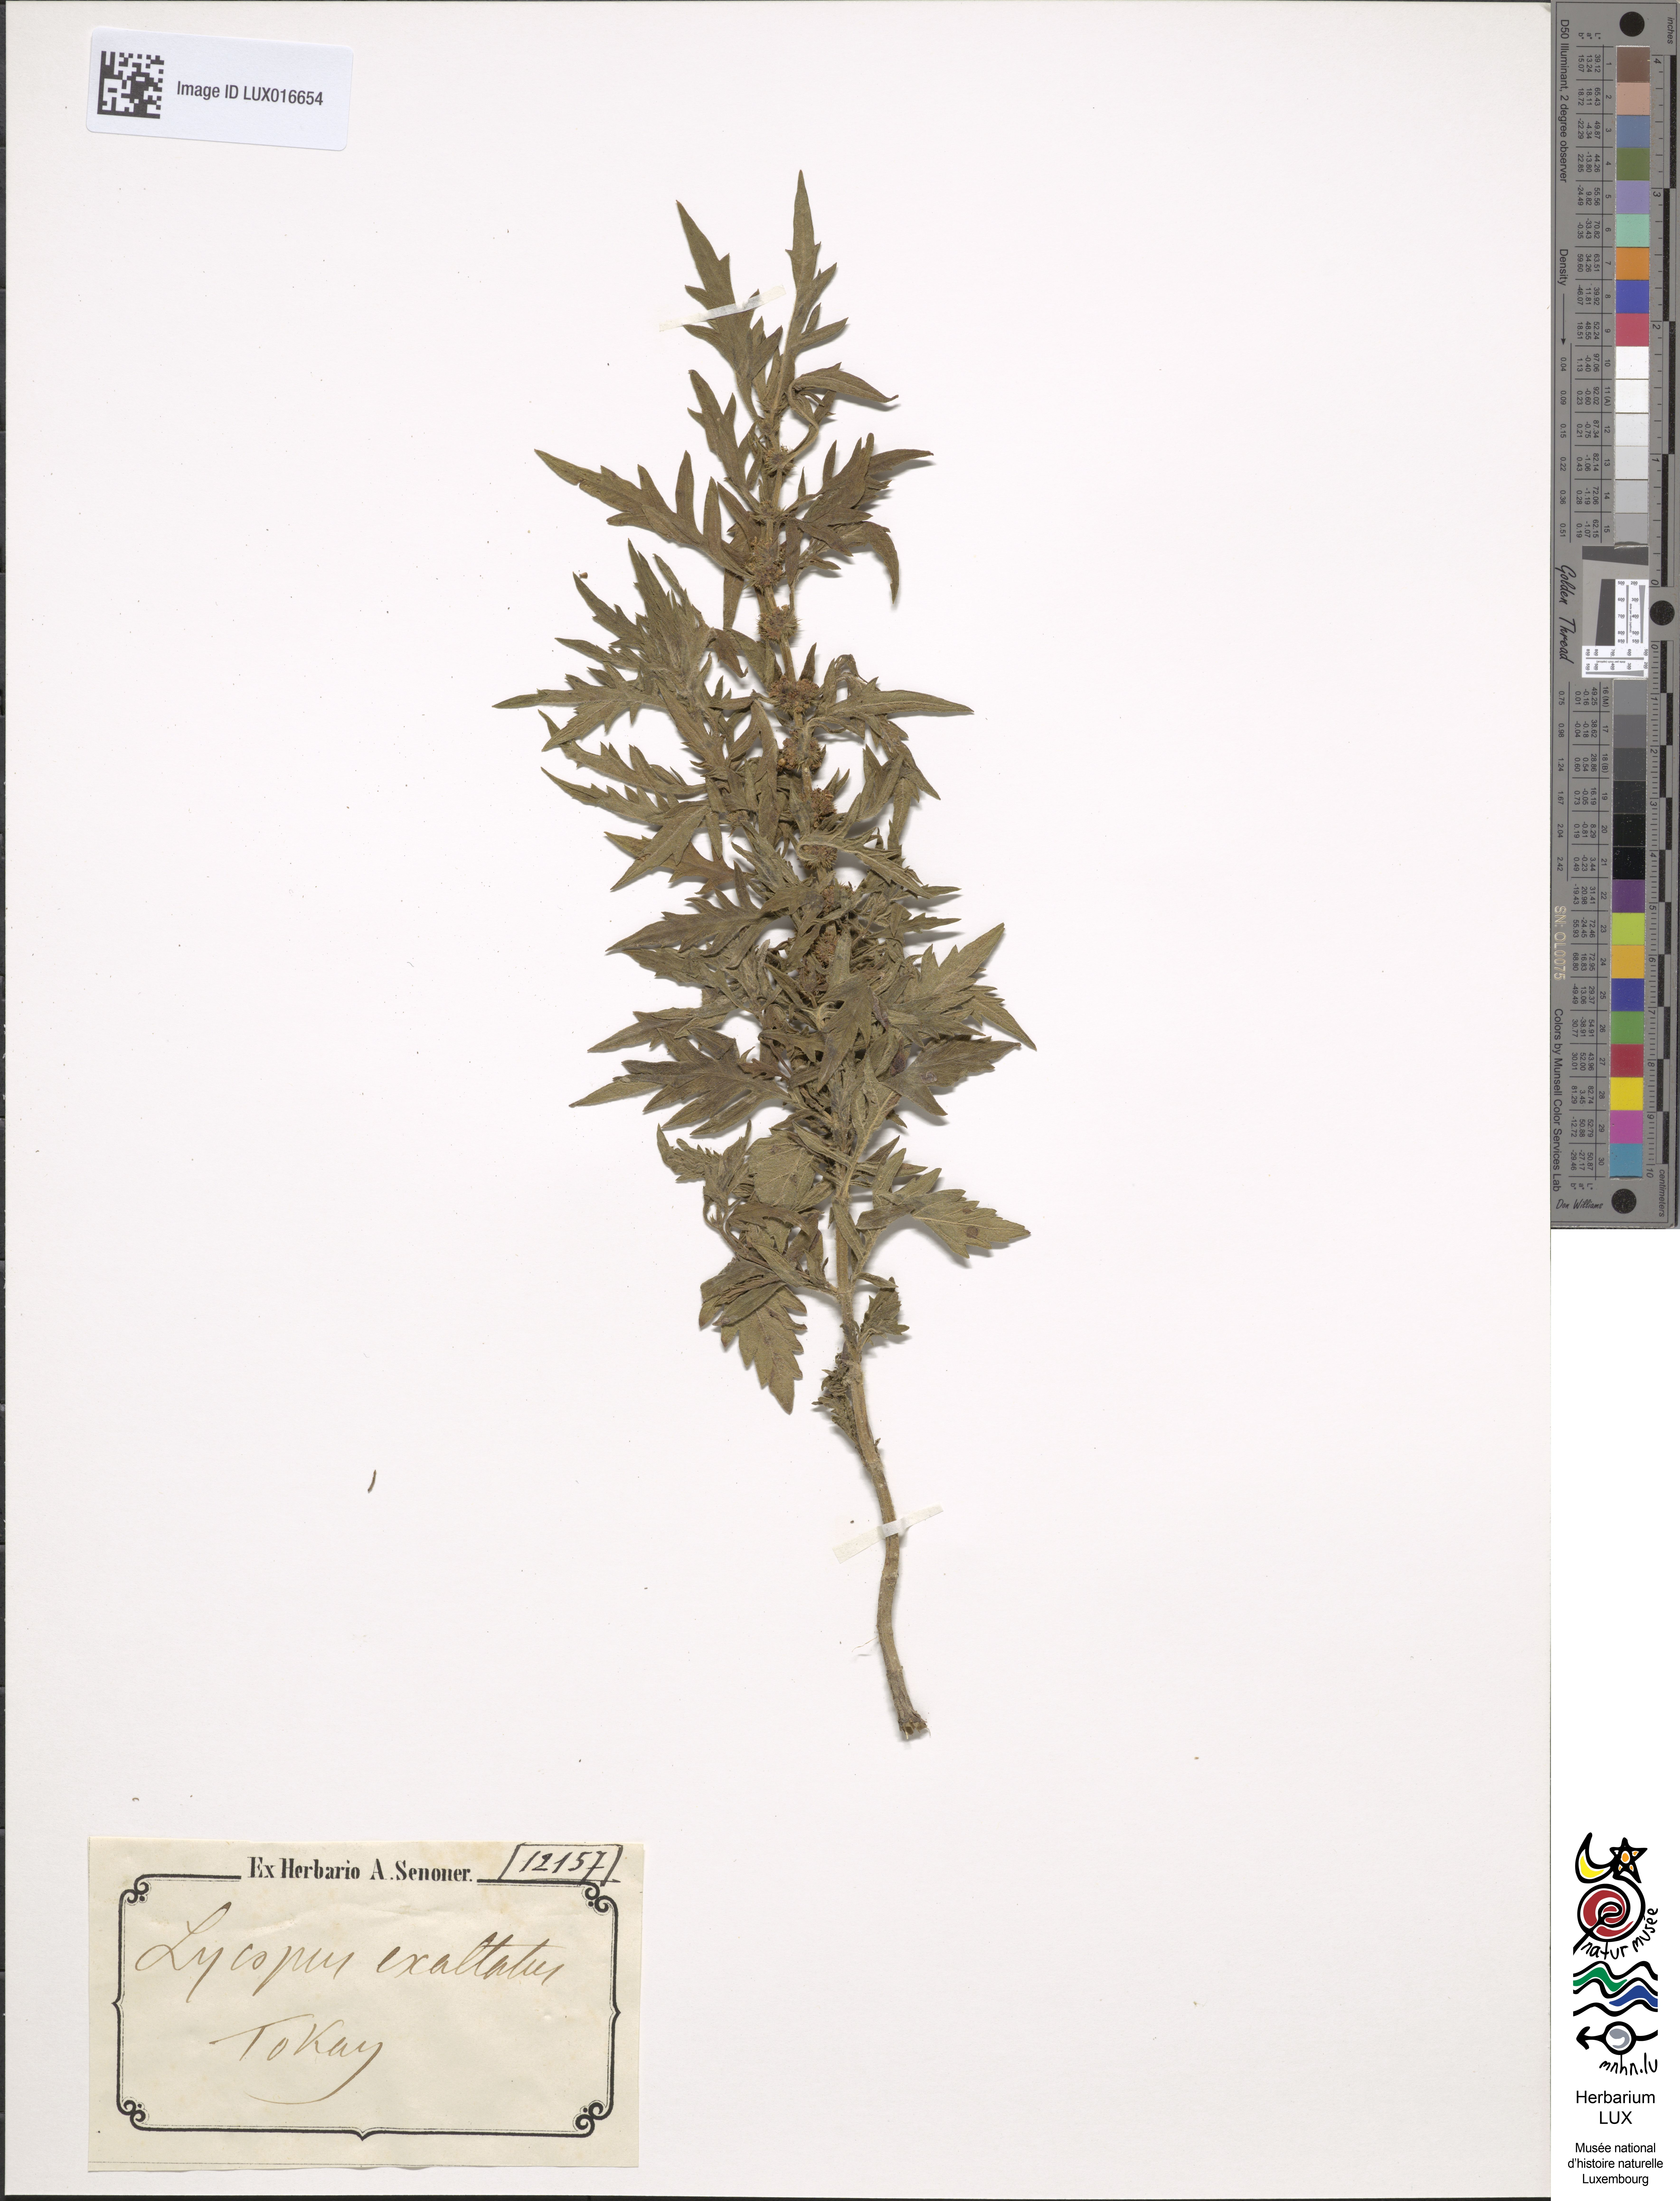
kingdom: Plantae
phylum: Tracheophyta
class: Magnoliopsida
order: Lamiales
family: Lamiaceae
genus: Lycopus
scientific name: Lycopus exaltatus
